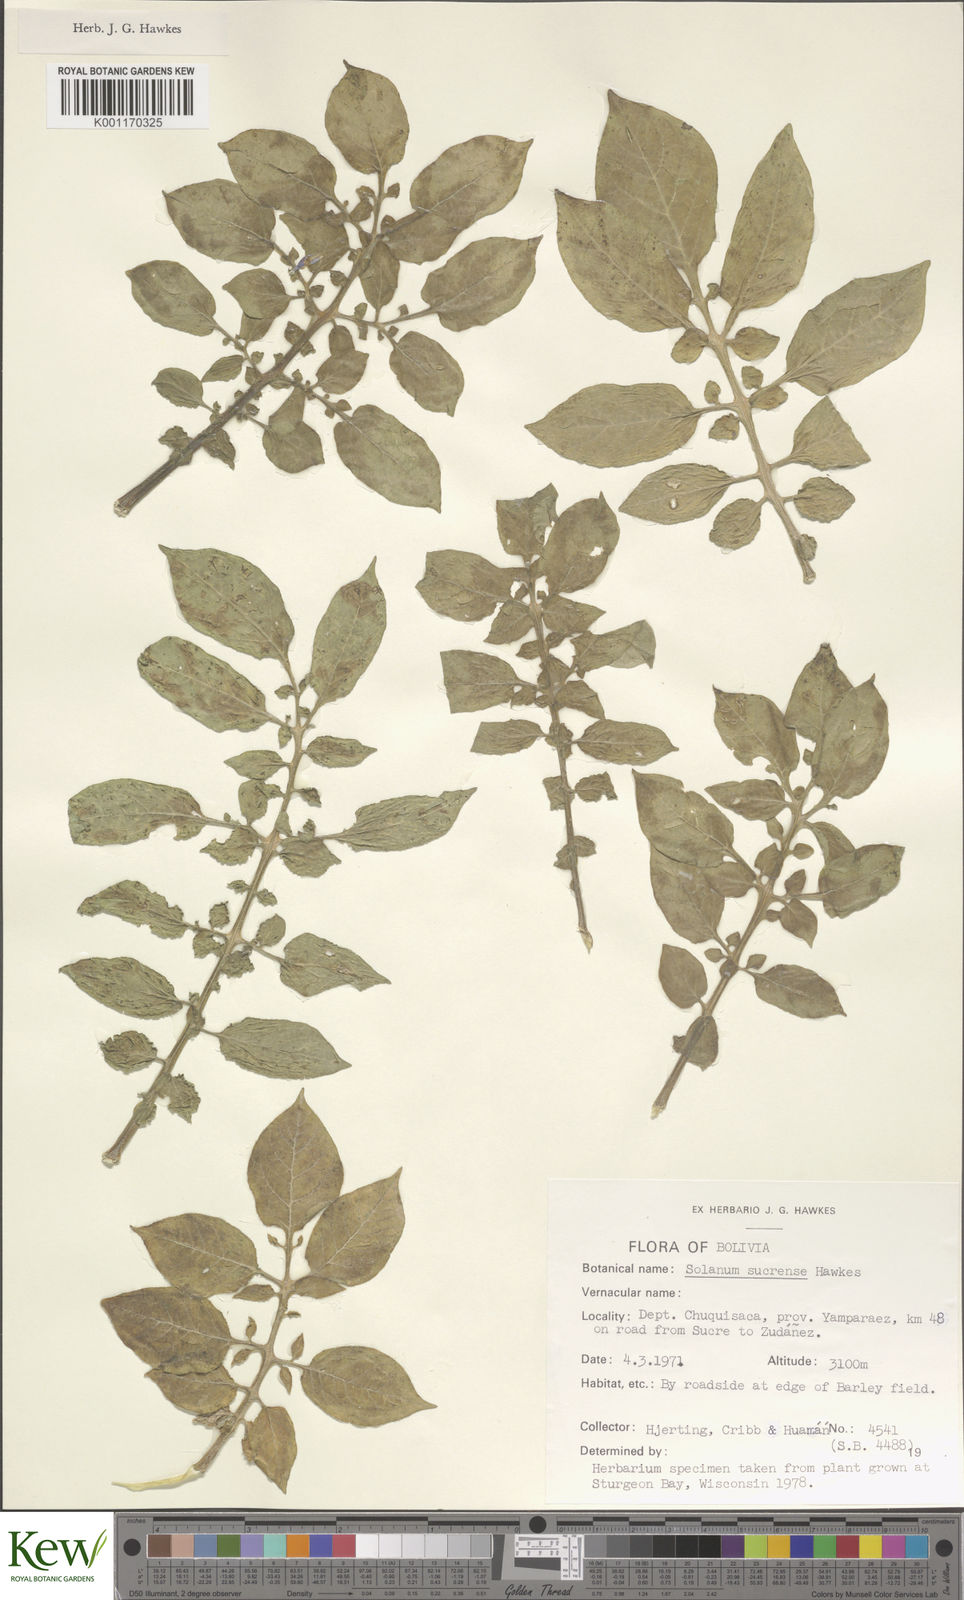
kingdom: Plantae
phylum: Tracheophyta
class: Magnoliopsida
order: Solanales
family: Solanaceae
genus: Solanum
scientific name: Solanum brevicaule
